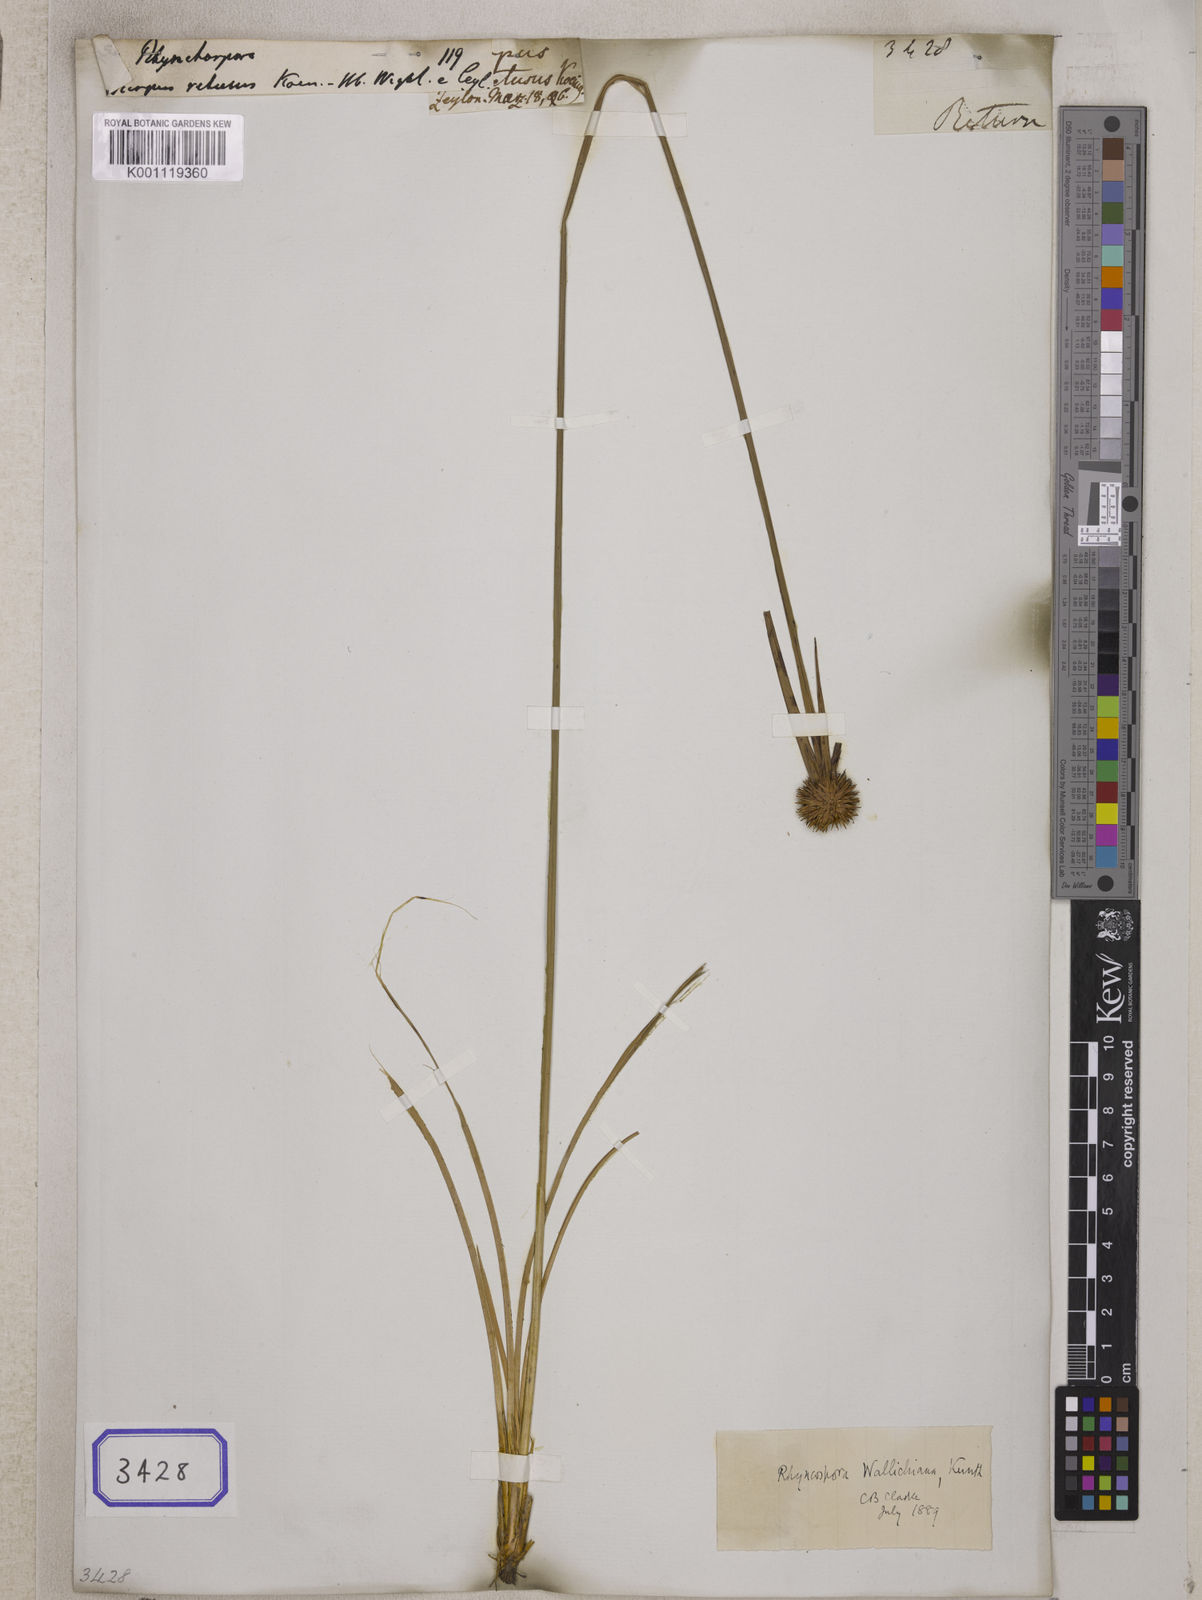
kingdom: Plantae
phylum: Tracheophyta
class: Liliopsida
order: Poales
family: Cyperaceae
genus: Rhynchospora
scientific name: Rhynchospora
